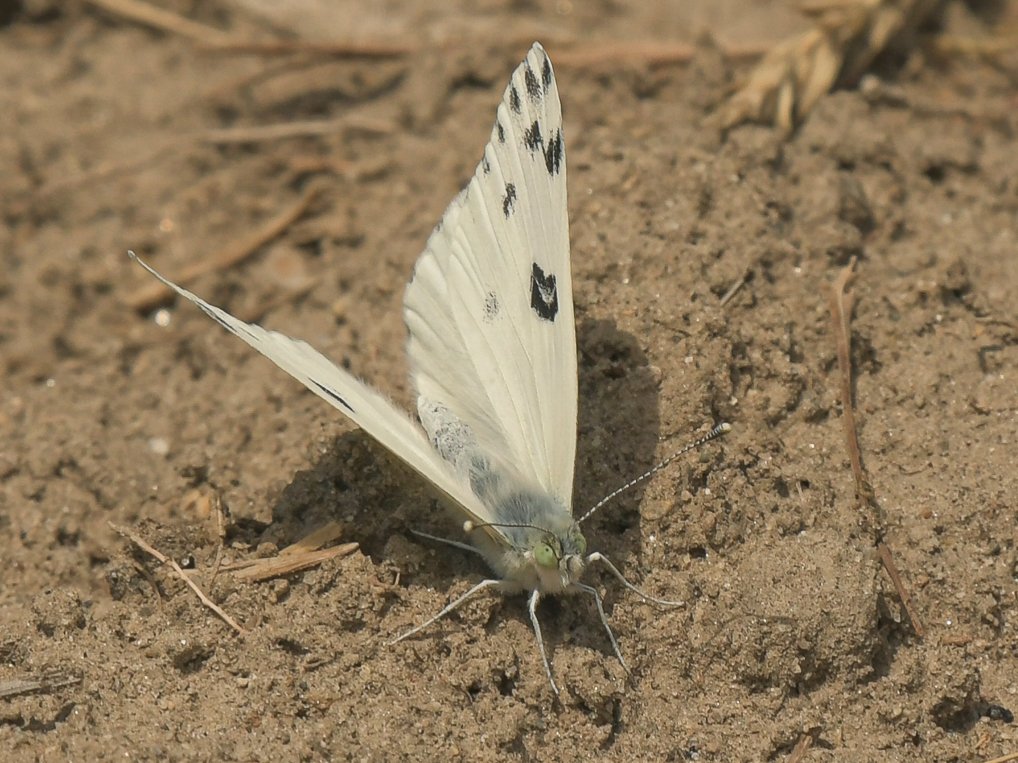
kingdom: Animalia
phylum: Arthropoda
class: Insecta
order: Lepidoptera
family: Pieridae
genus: Pontia
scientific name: Pontia beckerii
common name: Becker's White
